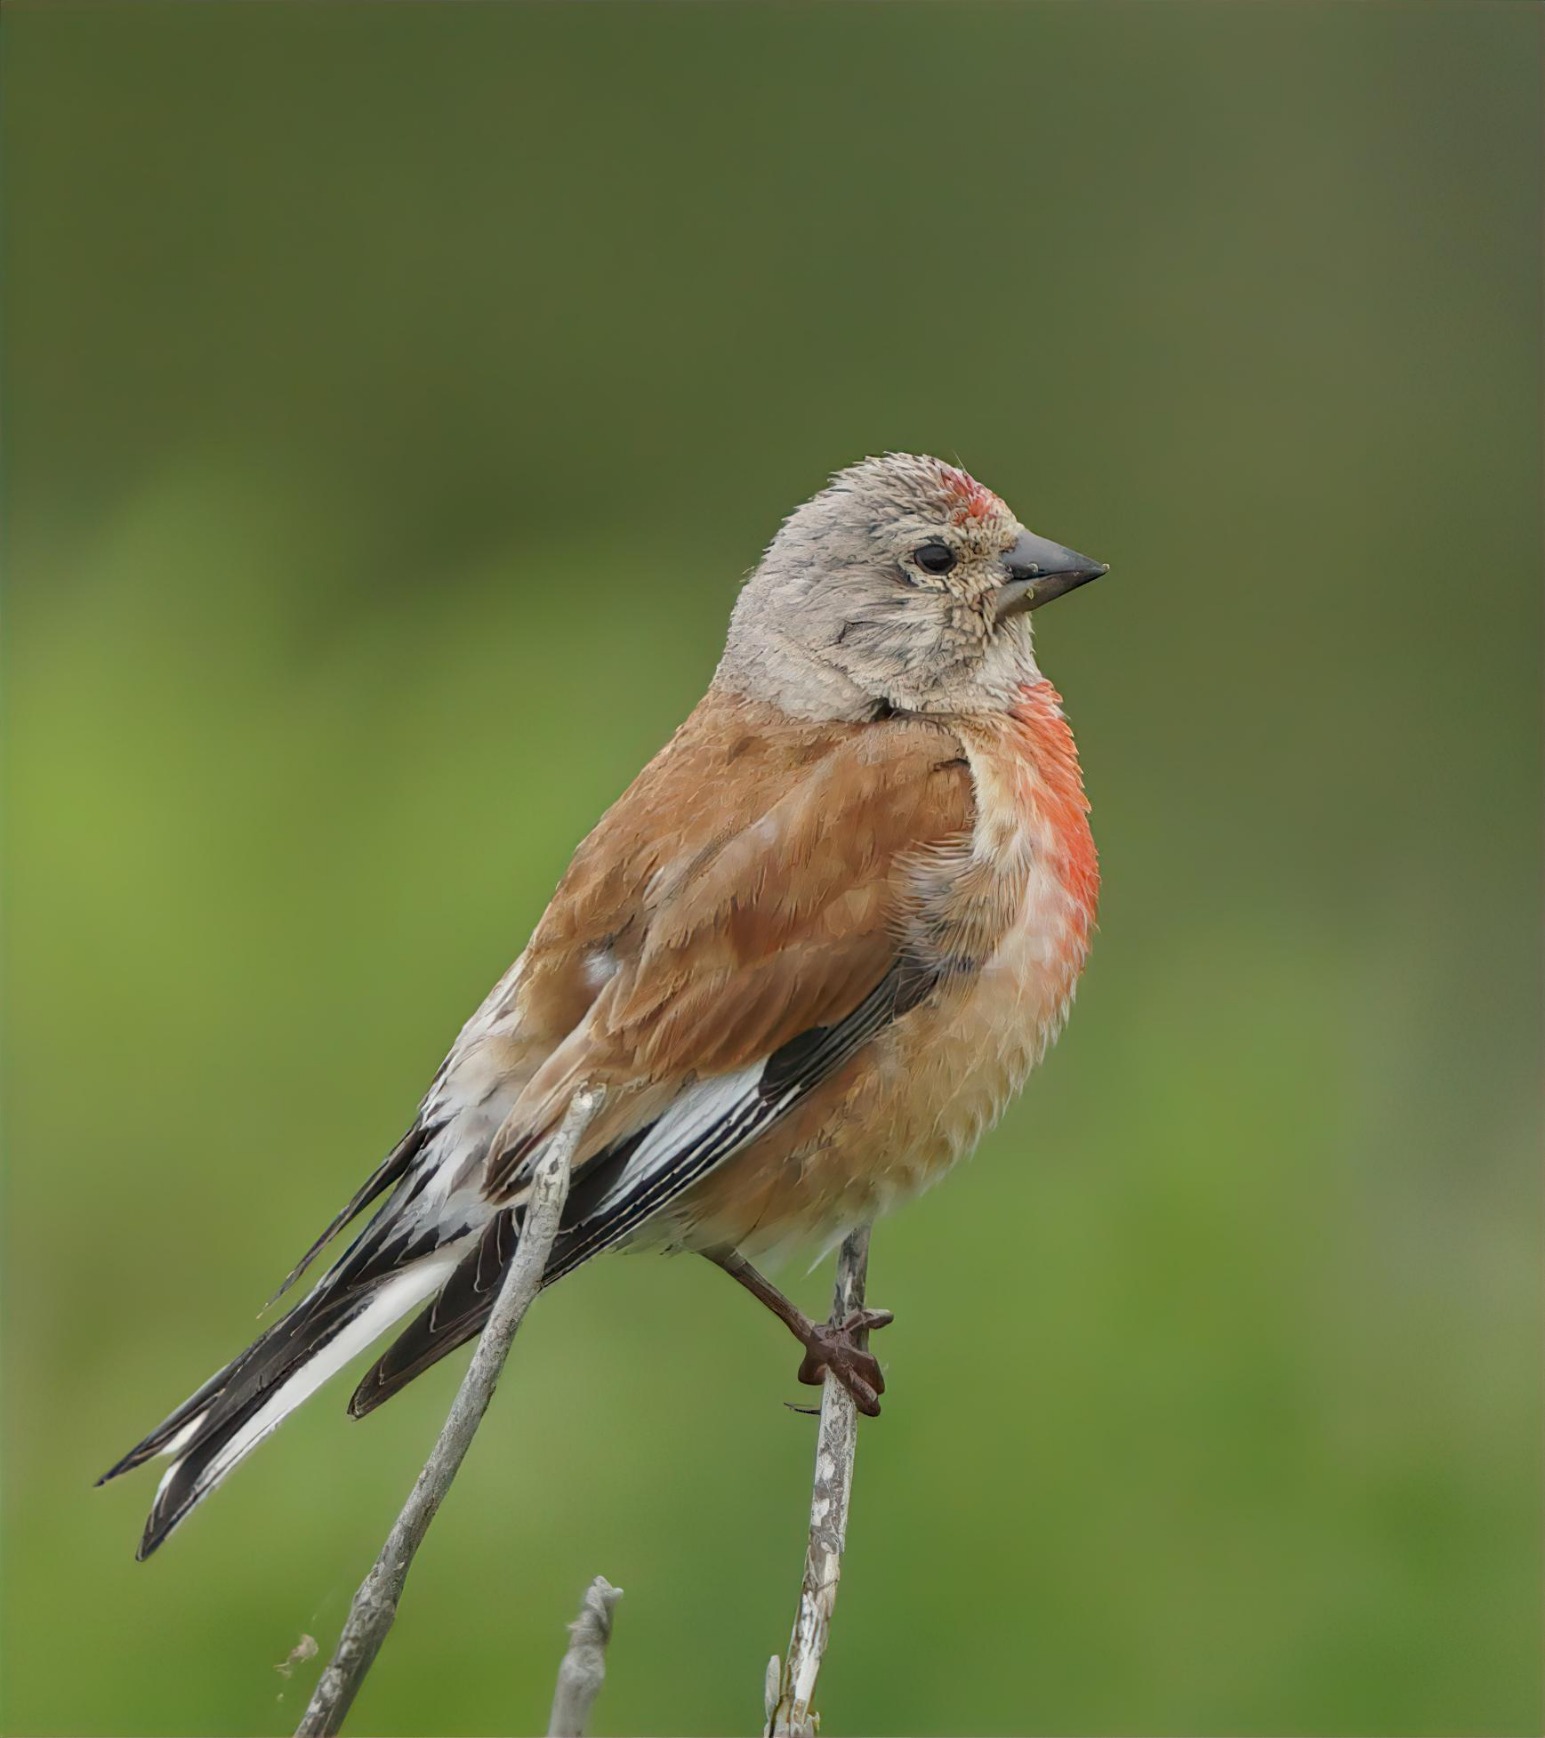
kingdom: Animalia
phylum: Chordata
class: Aves
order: Passeriformes
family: Fringillidae
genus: Linaria
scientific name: Linaria cannabina
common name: Tornirisk
